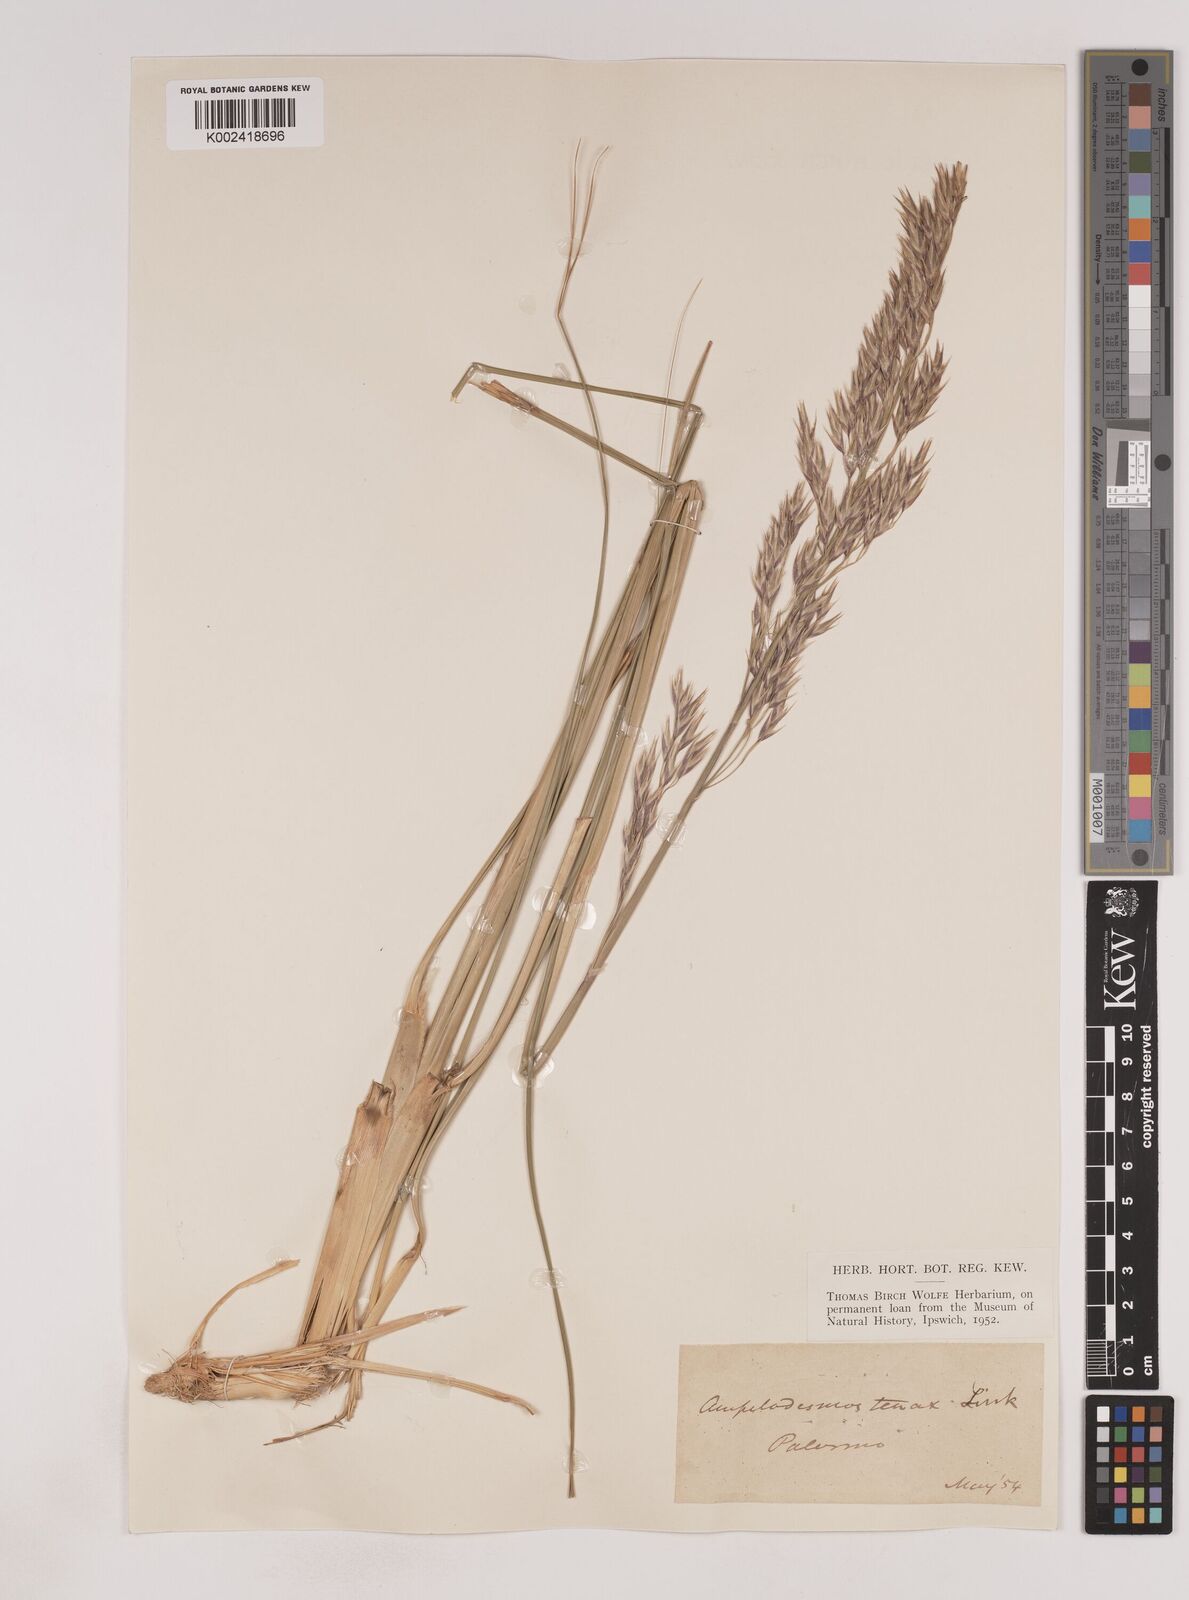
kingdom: Plantae
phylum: Tracheophyta
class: Liliopsida
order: Poales
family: Poaceae
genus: Ampelodesmos
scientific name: Ampelodesmos mauritanicus
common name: Mauritanian grass
